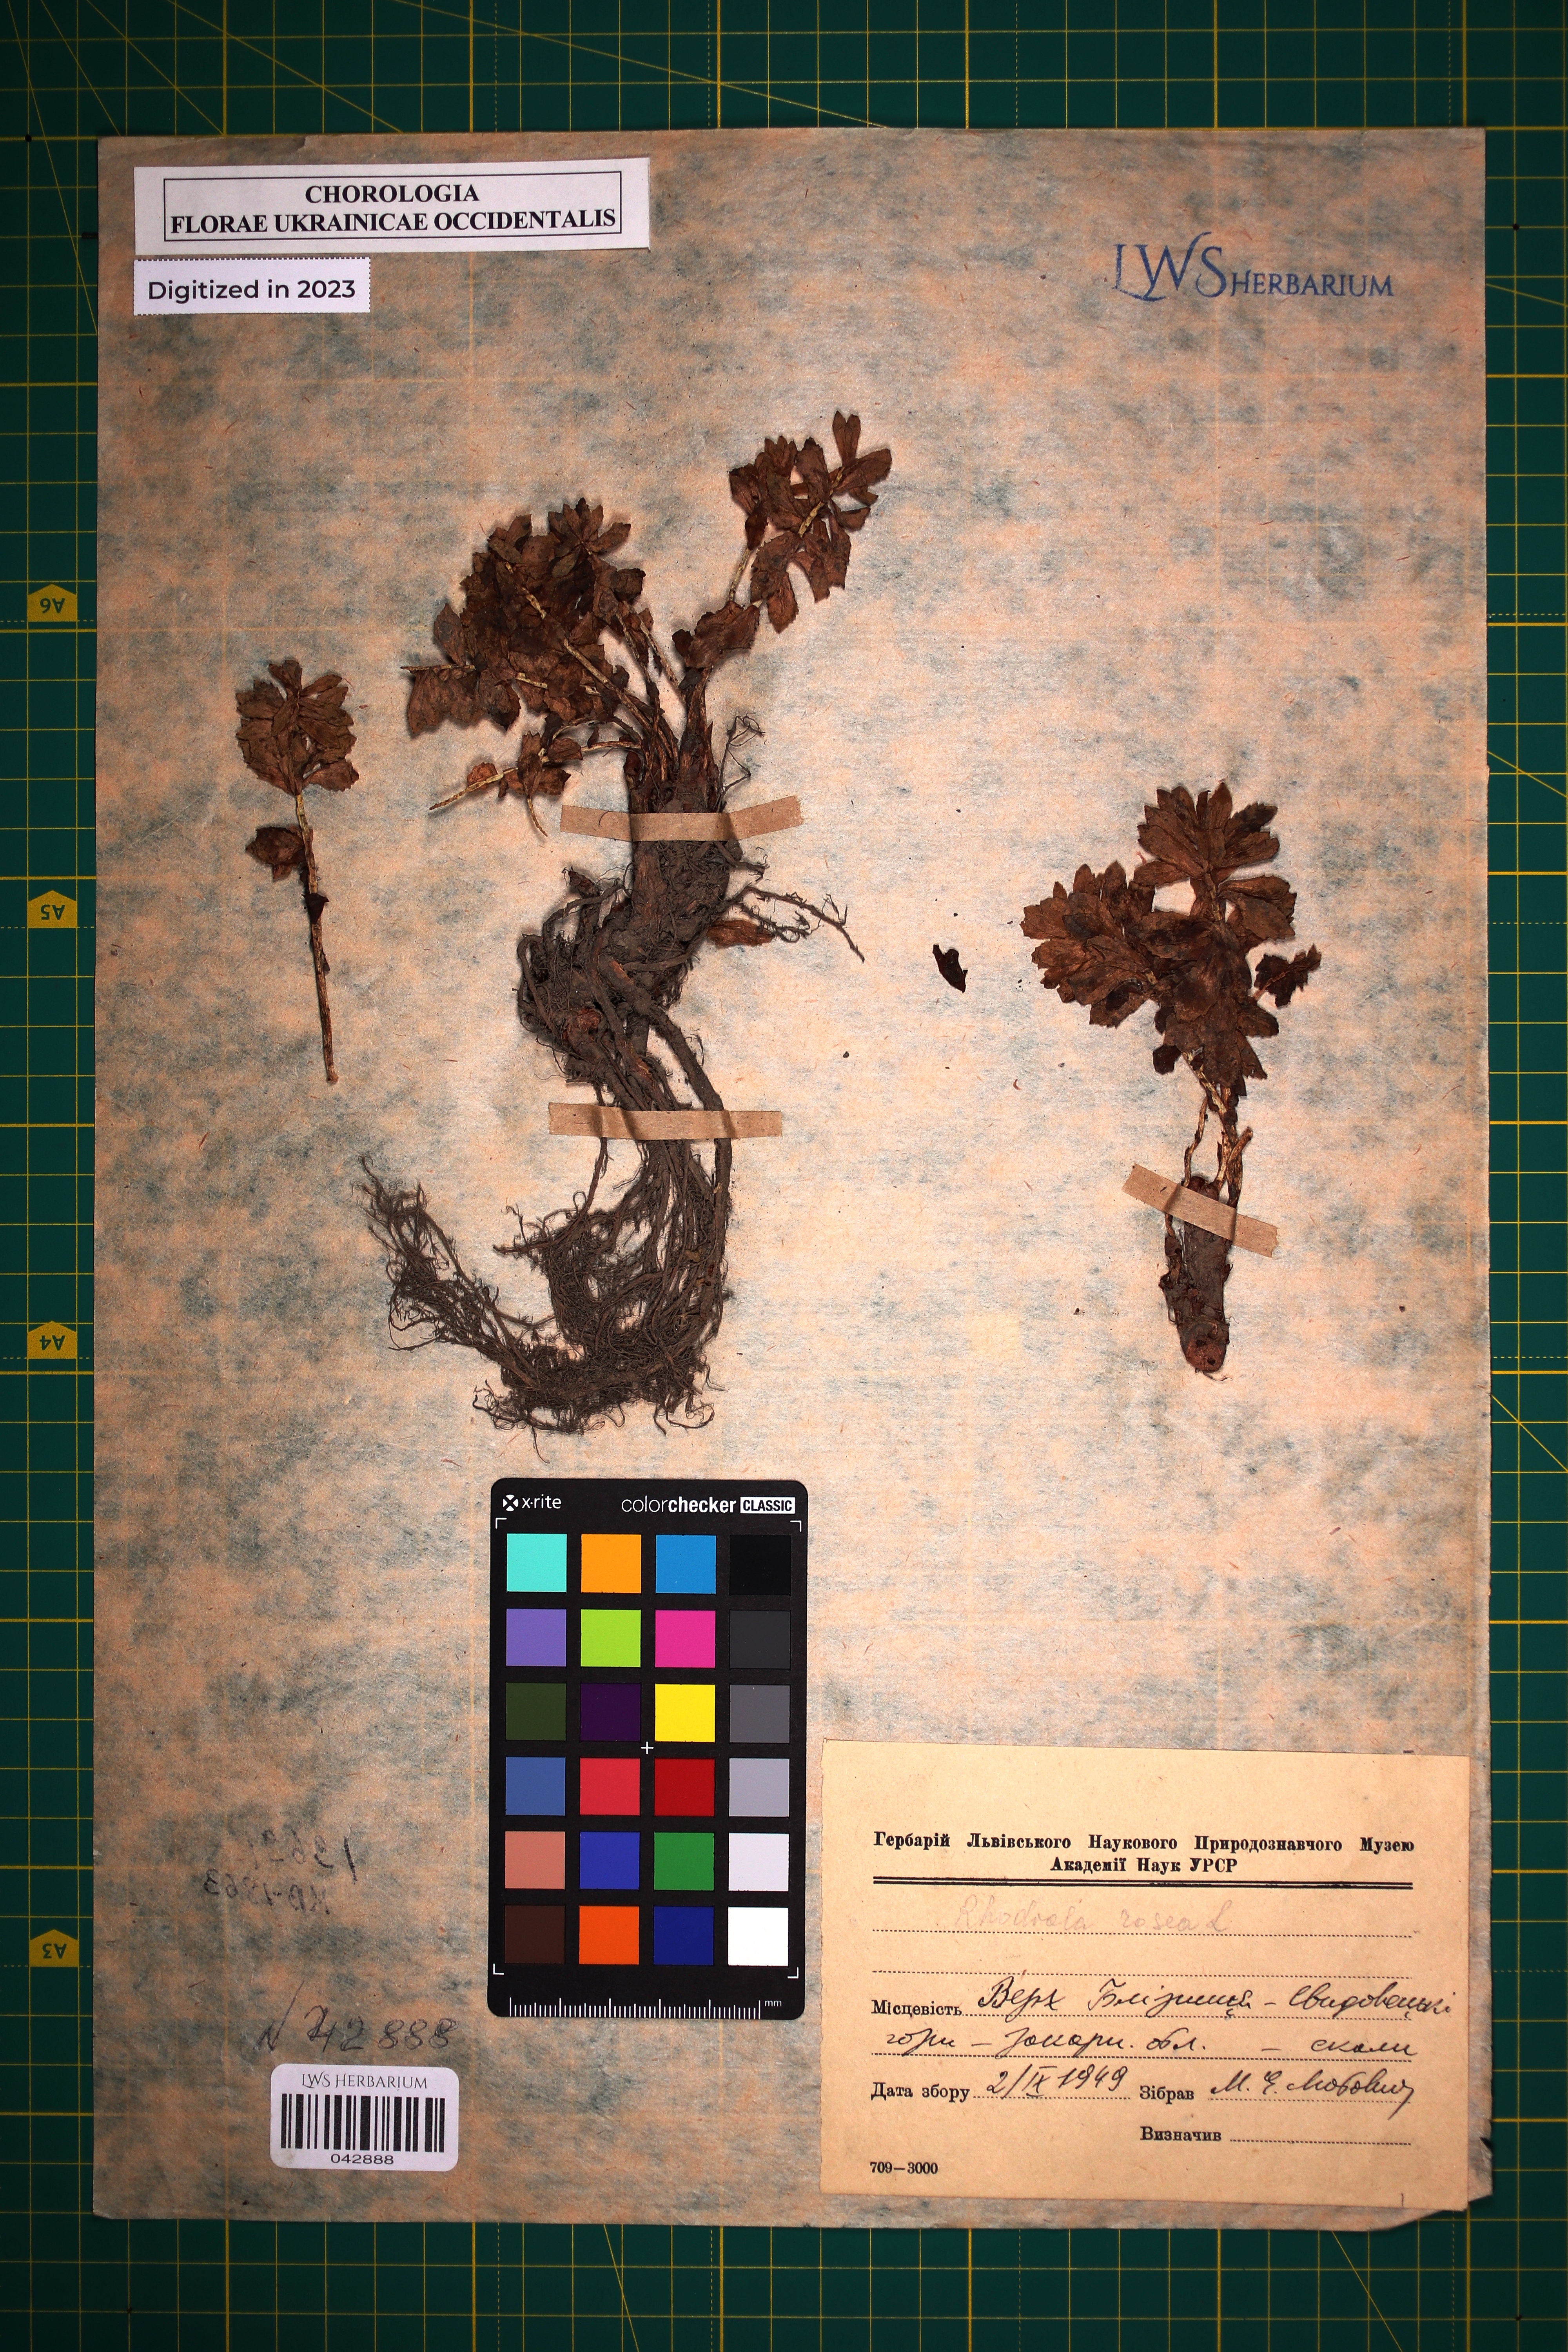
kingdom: Plantae
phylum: Tracheophyta
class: Magnoliopsida
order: Saxifragales
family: Crassulaceae
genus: Rhodiola
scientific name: Rhodiola rosea
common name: Roseroot
